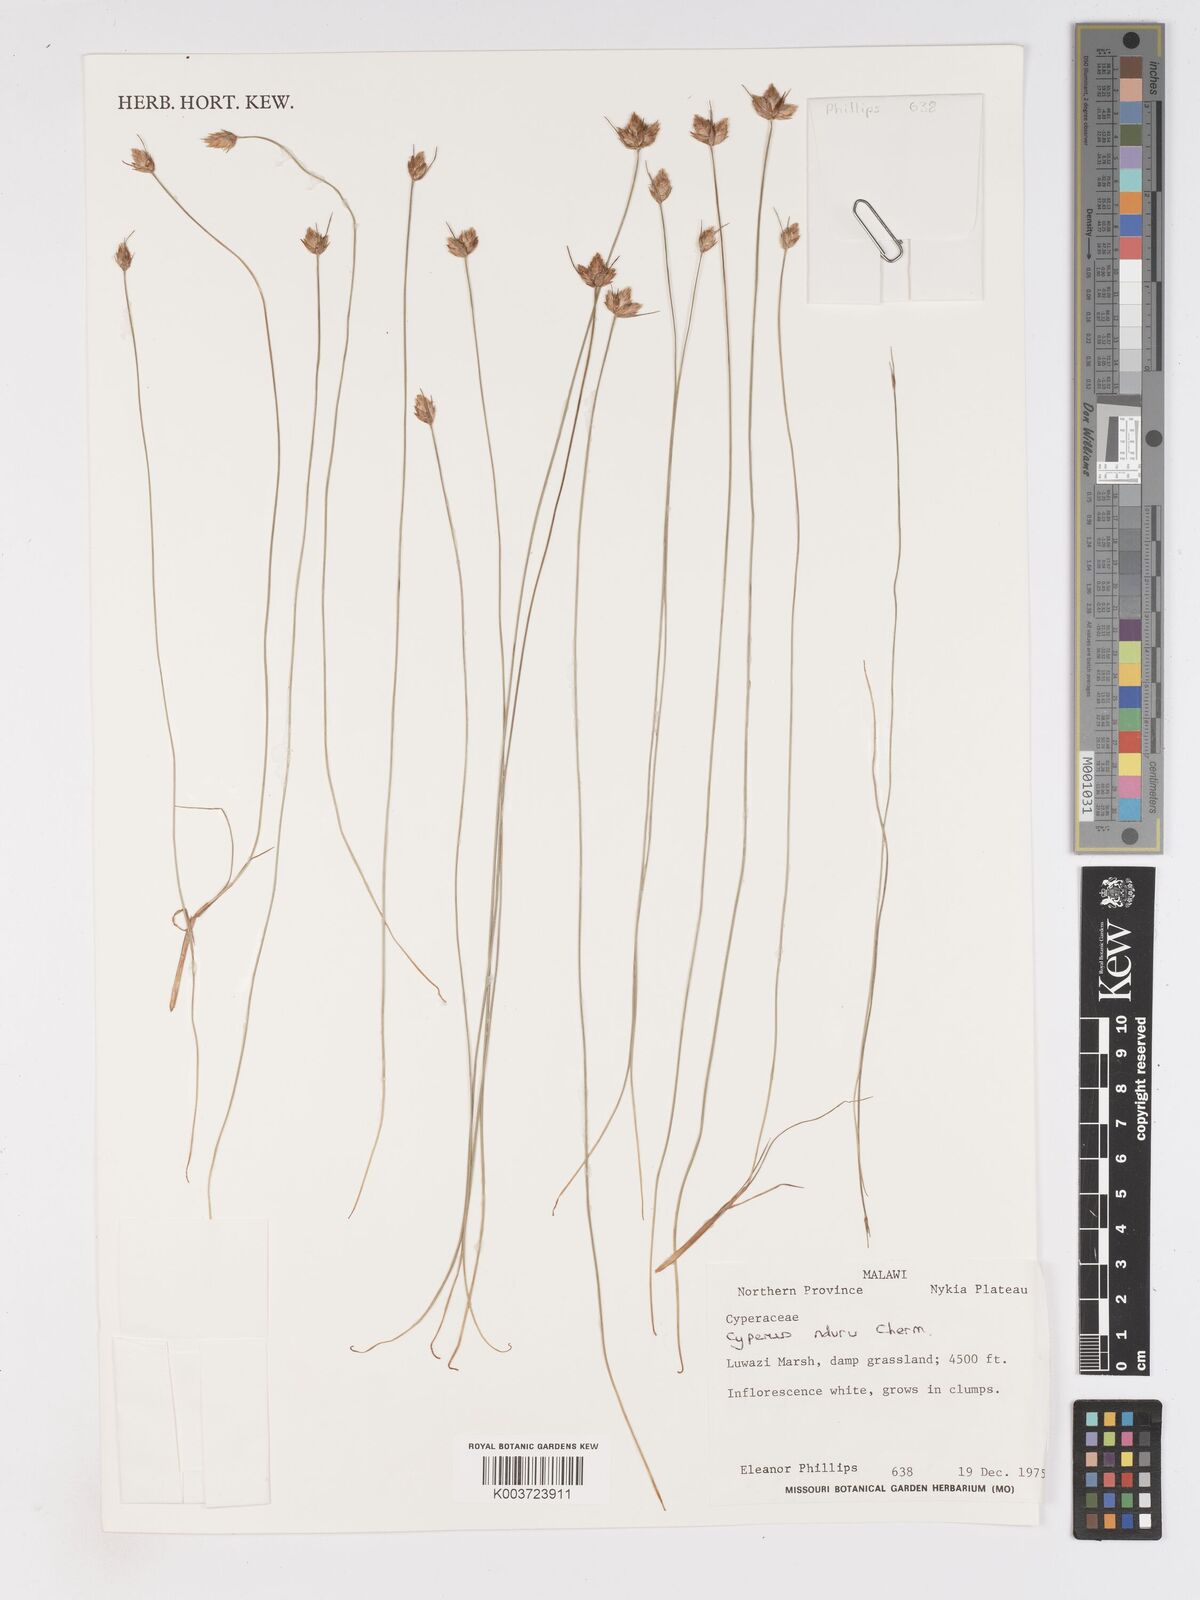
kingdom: Plantae
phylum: Tracheophyta
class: Liliopsida
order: Poales
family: Cyperaceae
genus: Cyperus
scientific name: Cyperus nduru
